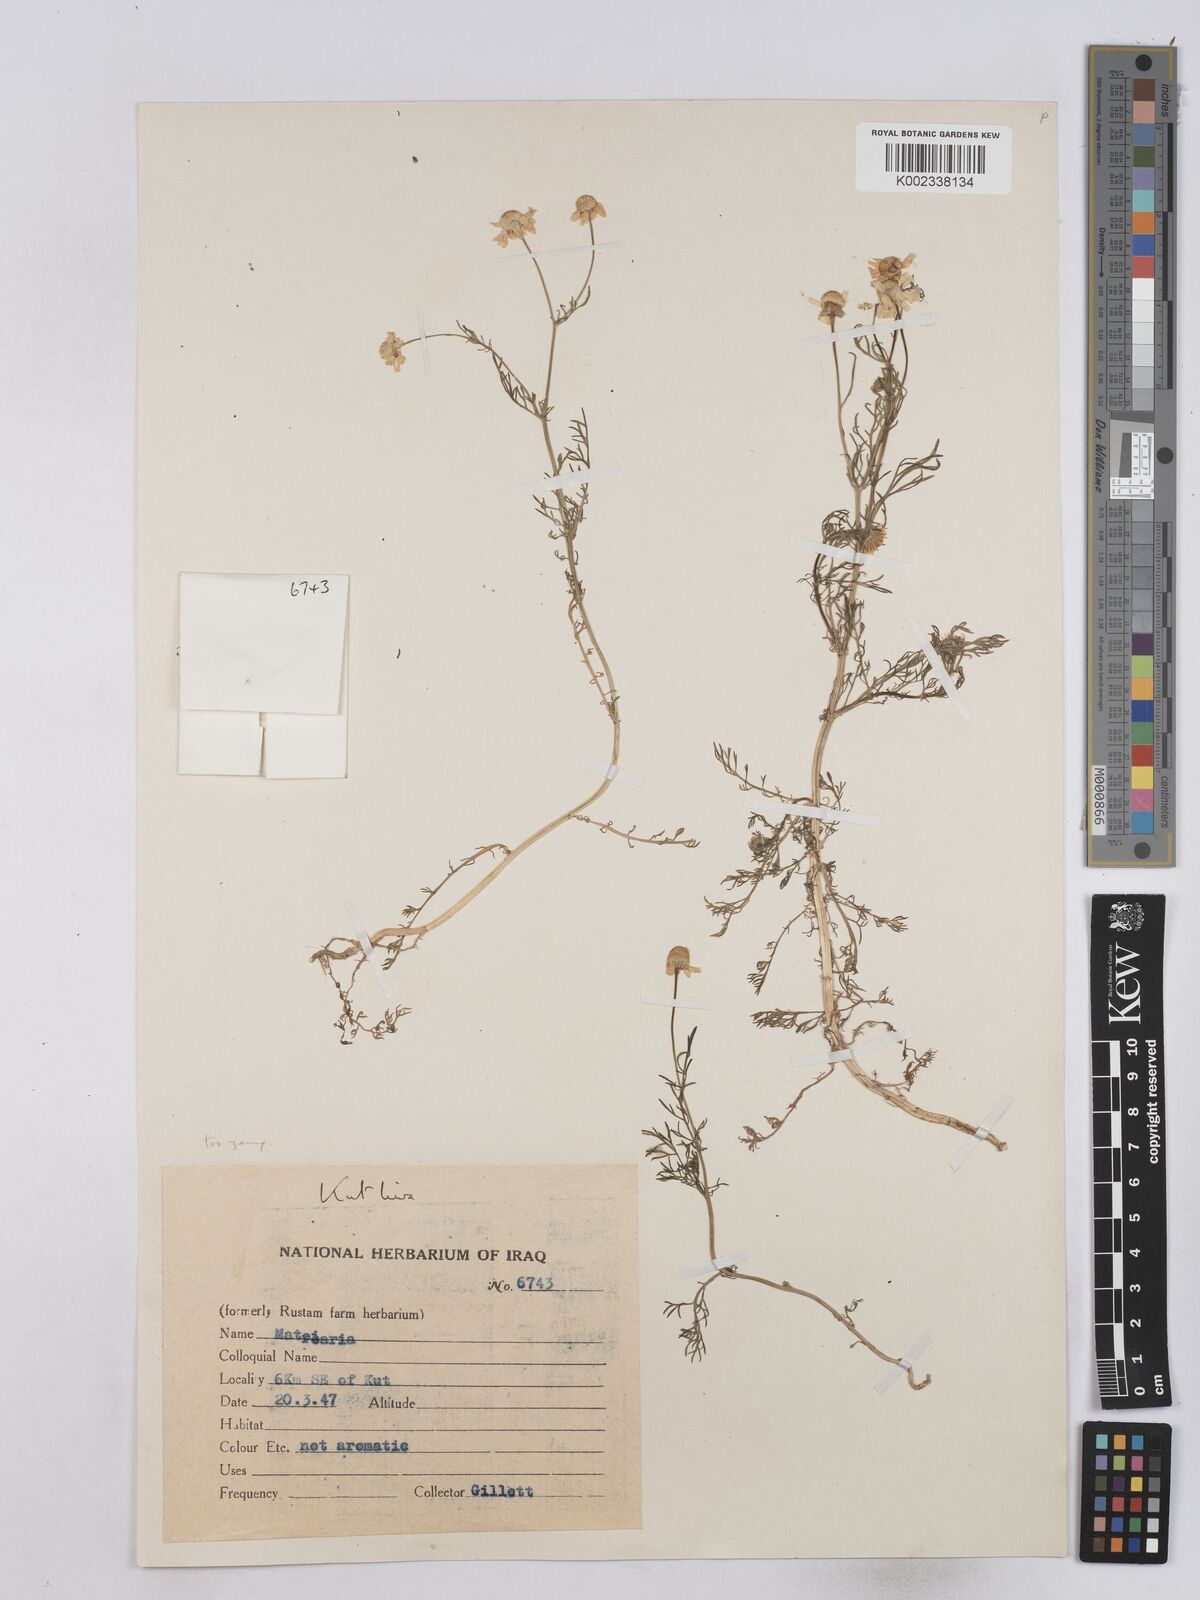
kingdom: Plantae
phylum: Tracheophyta
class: Magnoliopsida
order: Asterales
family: Asteraceae
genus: Matricaria
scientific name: Matricaria chamomilla
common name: Scented mayweed
